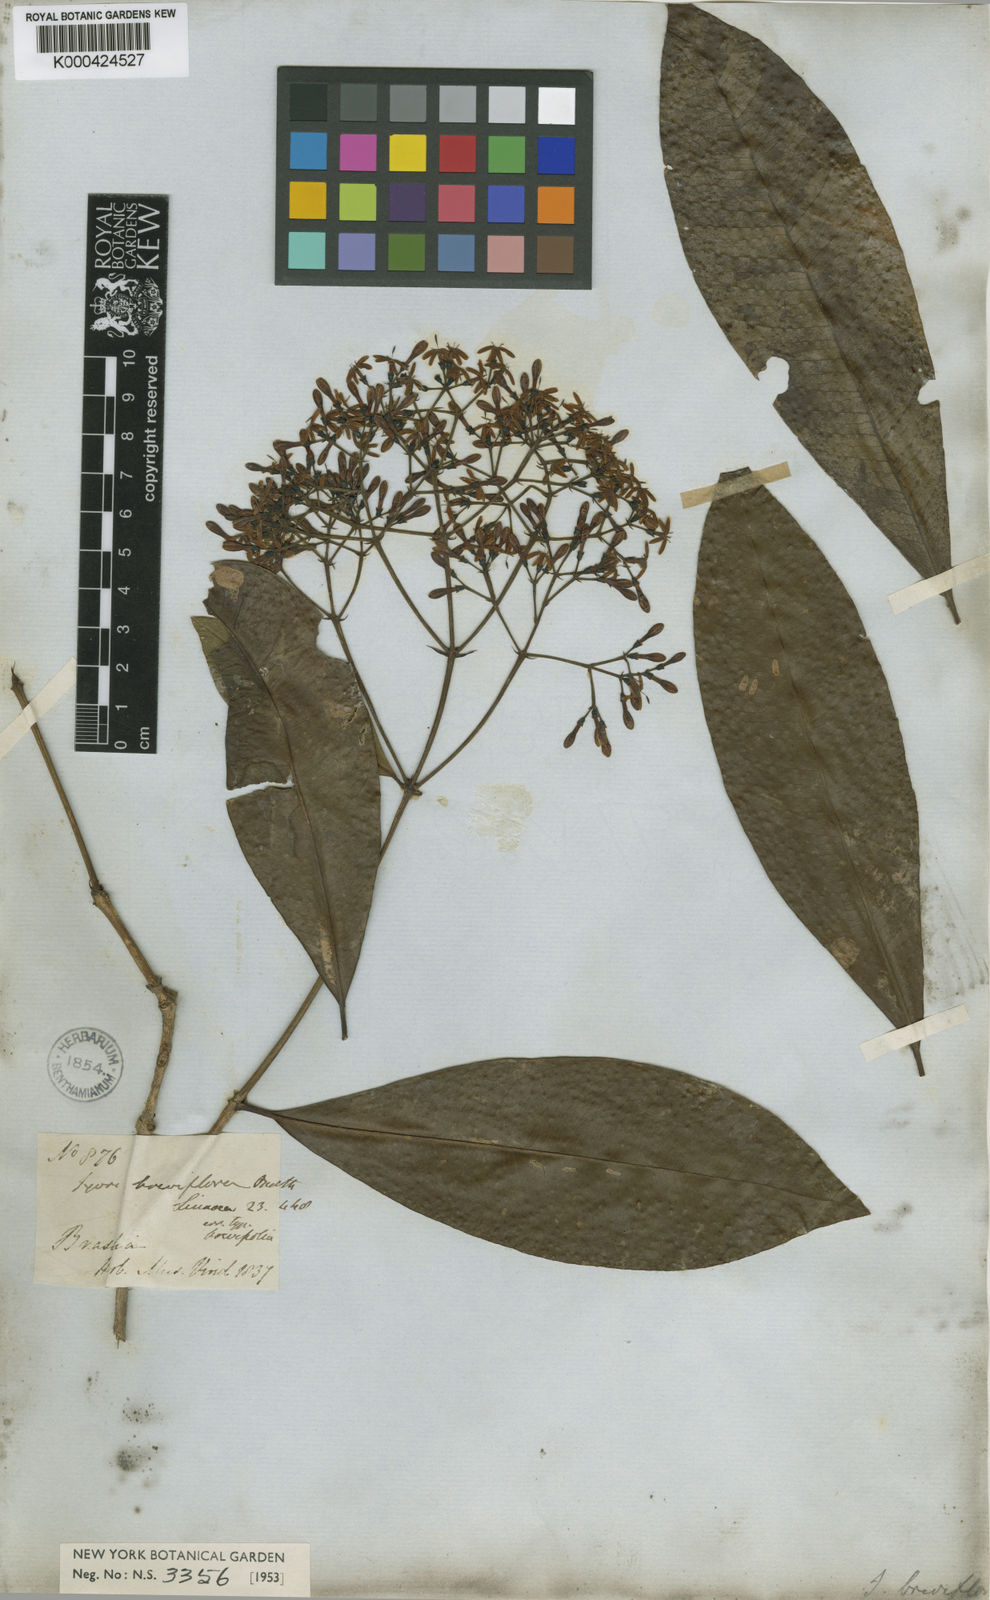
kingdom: Plantae
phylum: Tracheophyta
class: Magnoliopsida
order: Gentianales
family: Rubiaceae
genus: Ixora
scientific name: Ixora brevifolia
